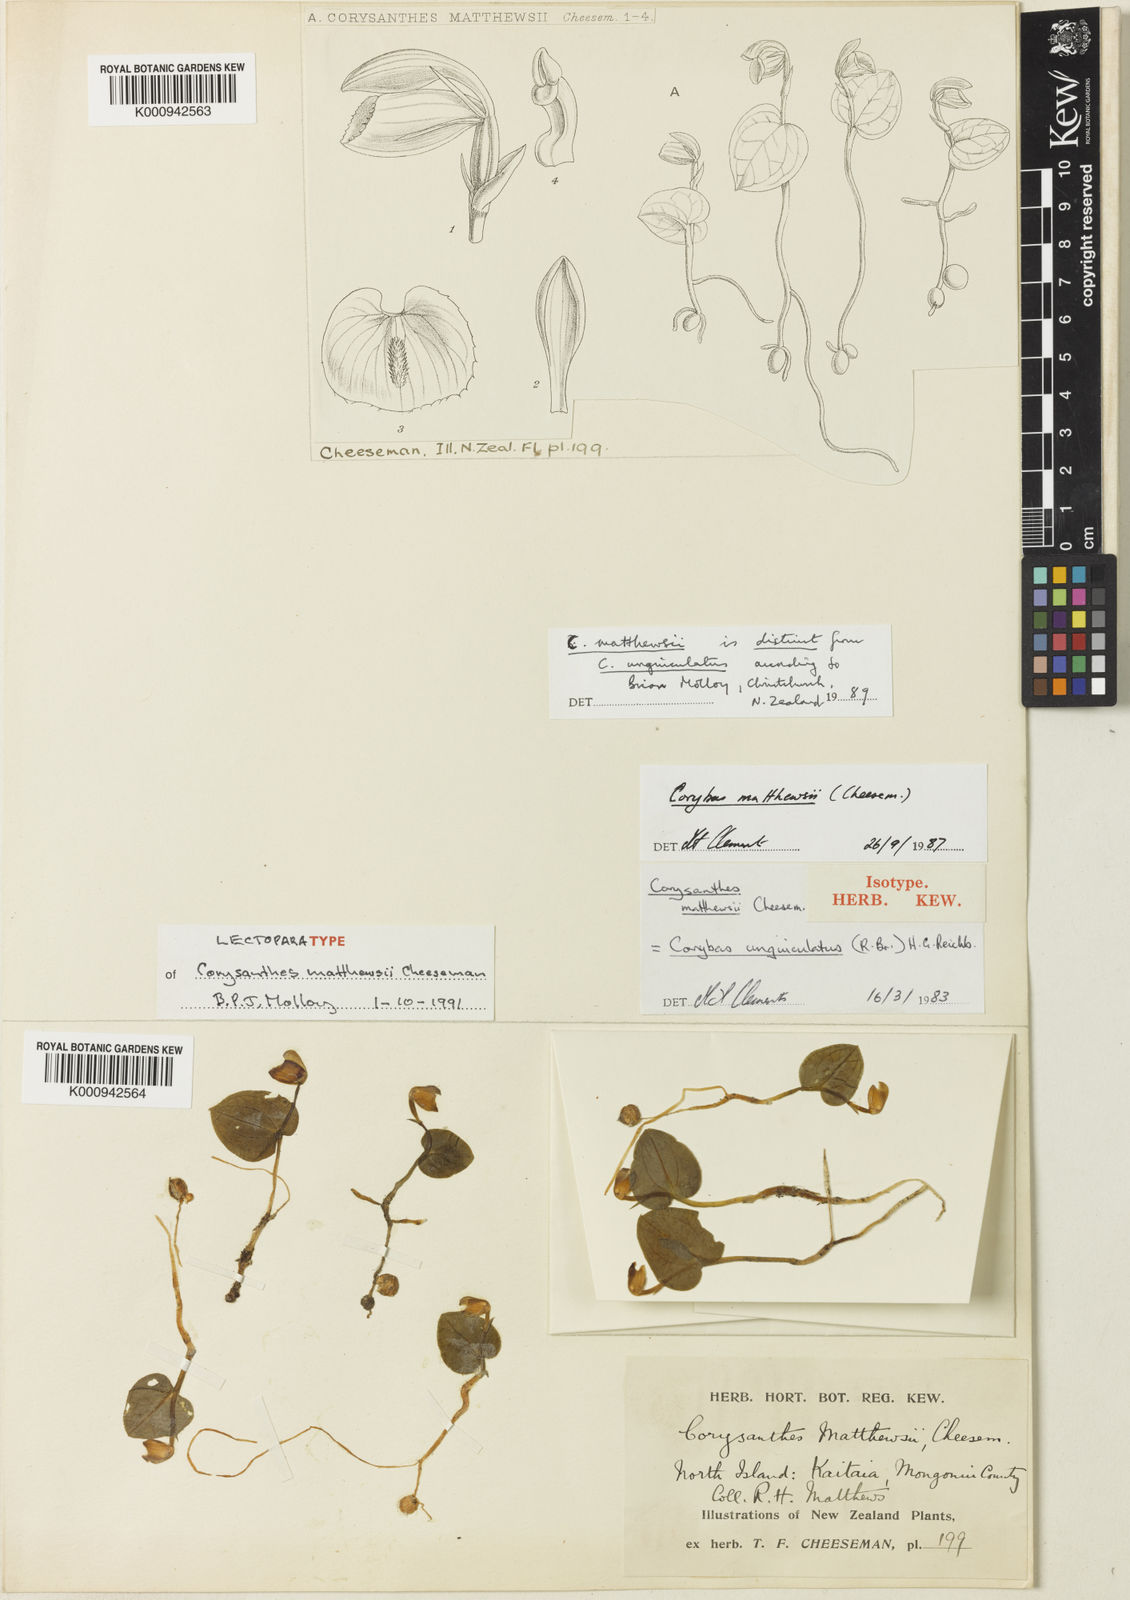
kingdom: Plantae
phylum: Tracheophyta
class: Liliopsida
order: Asparagales
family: Orchidaceae
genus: Corybas
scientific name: Corybas rotundifolius
